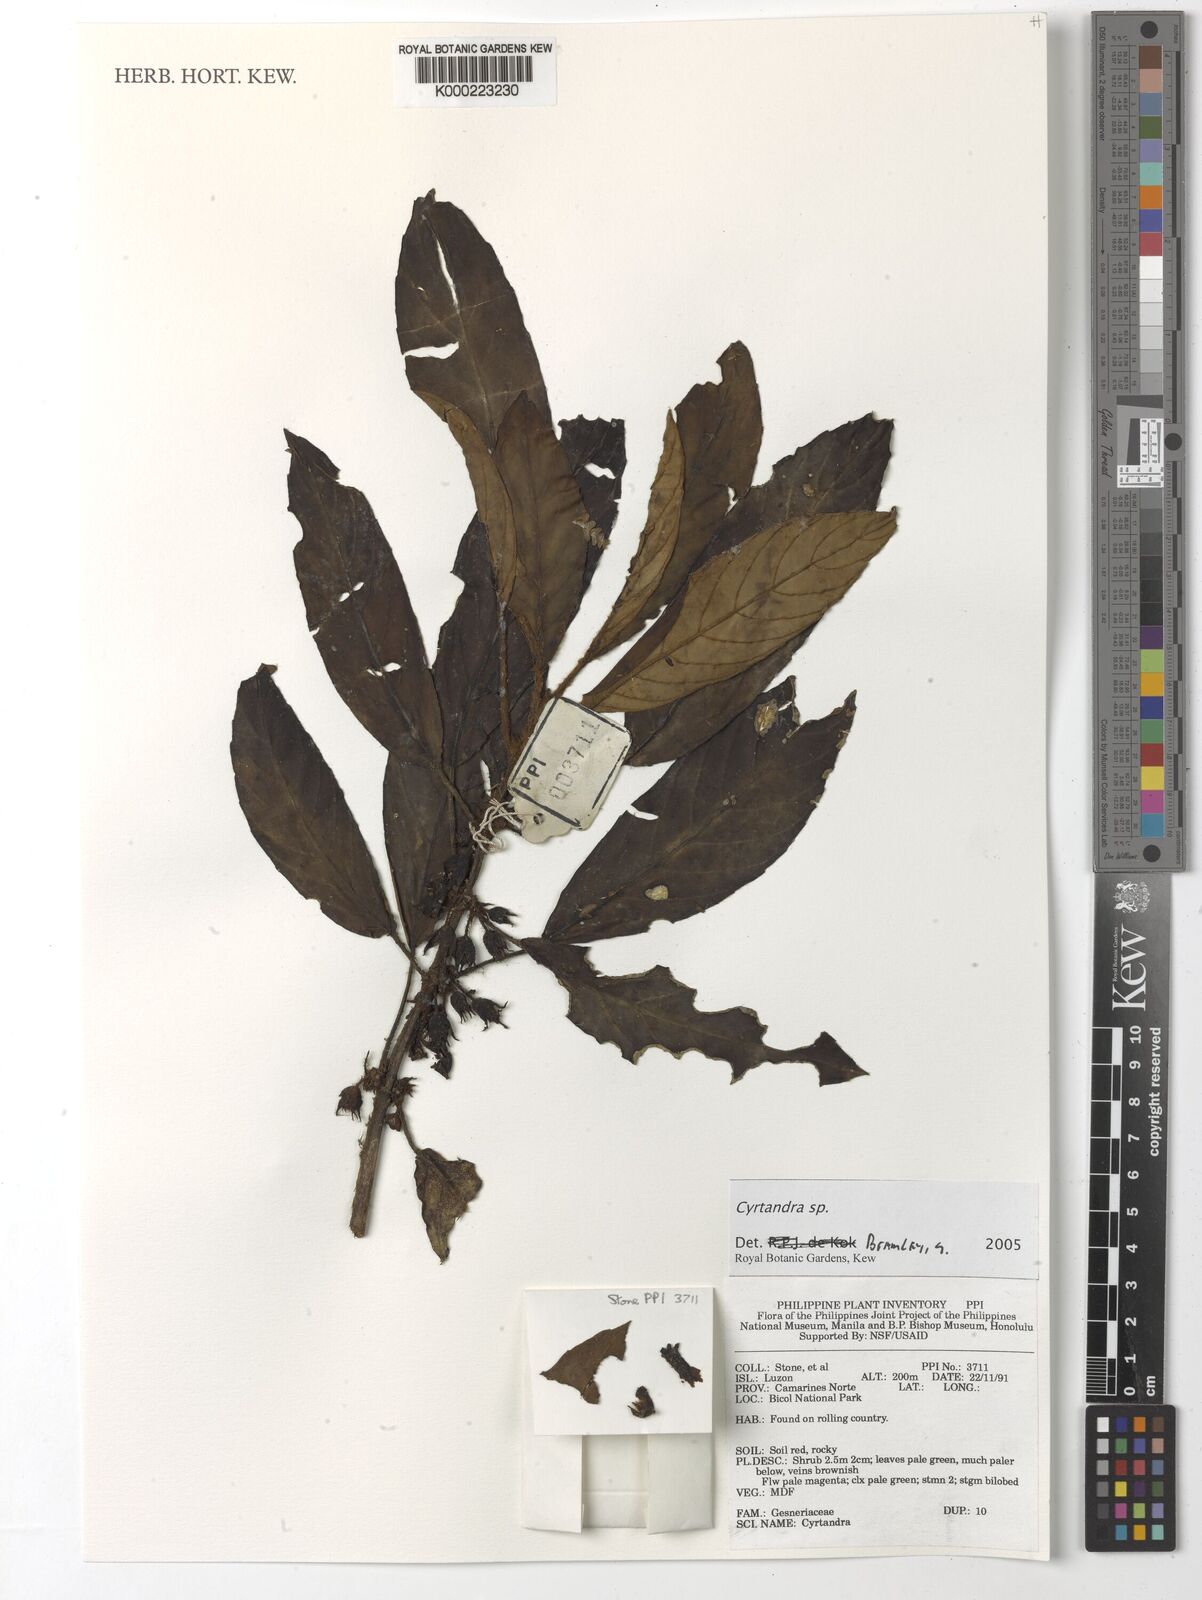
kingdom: Plantae
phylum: Tracheophyta
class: Magnoliopsida
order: Lamiales
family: Gesneriaceae
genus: Cyrtandra
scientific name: Cyrtandra
